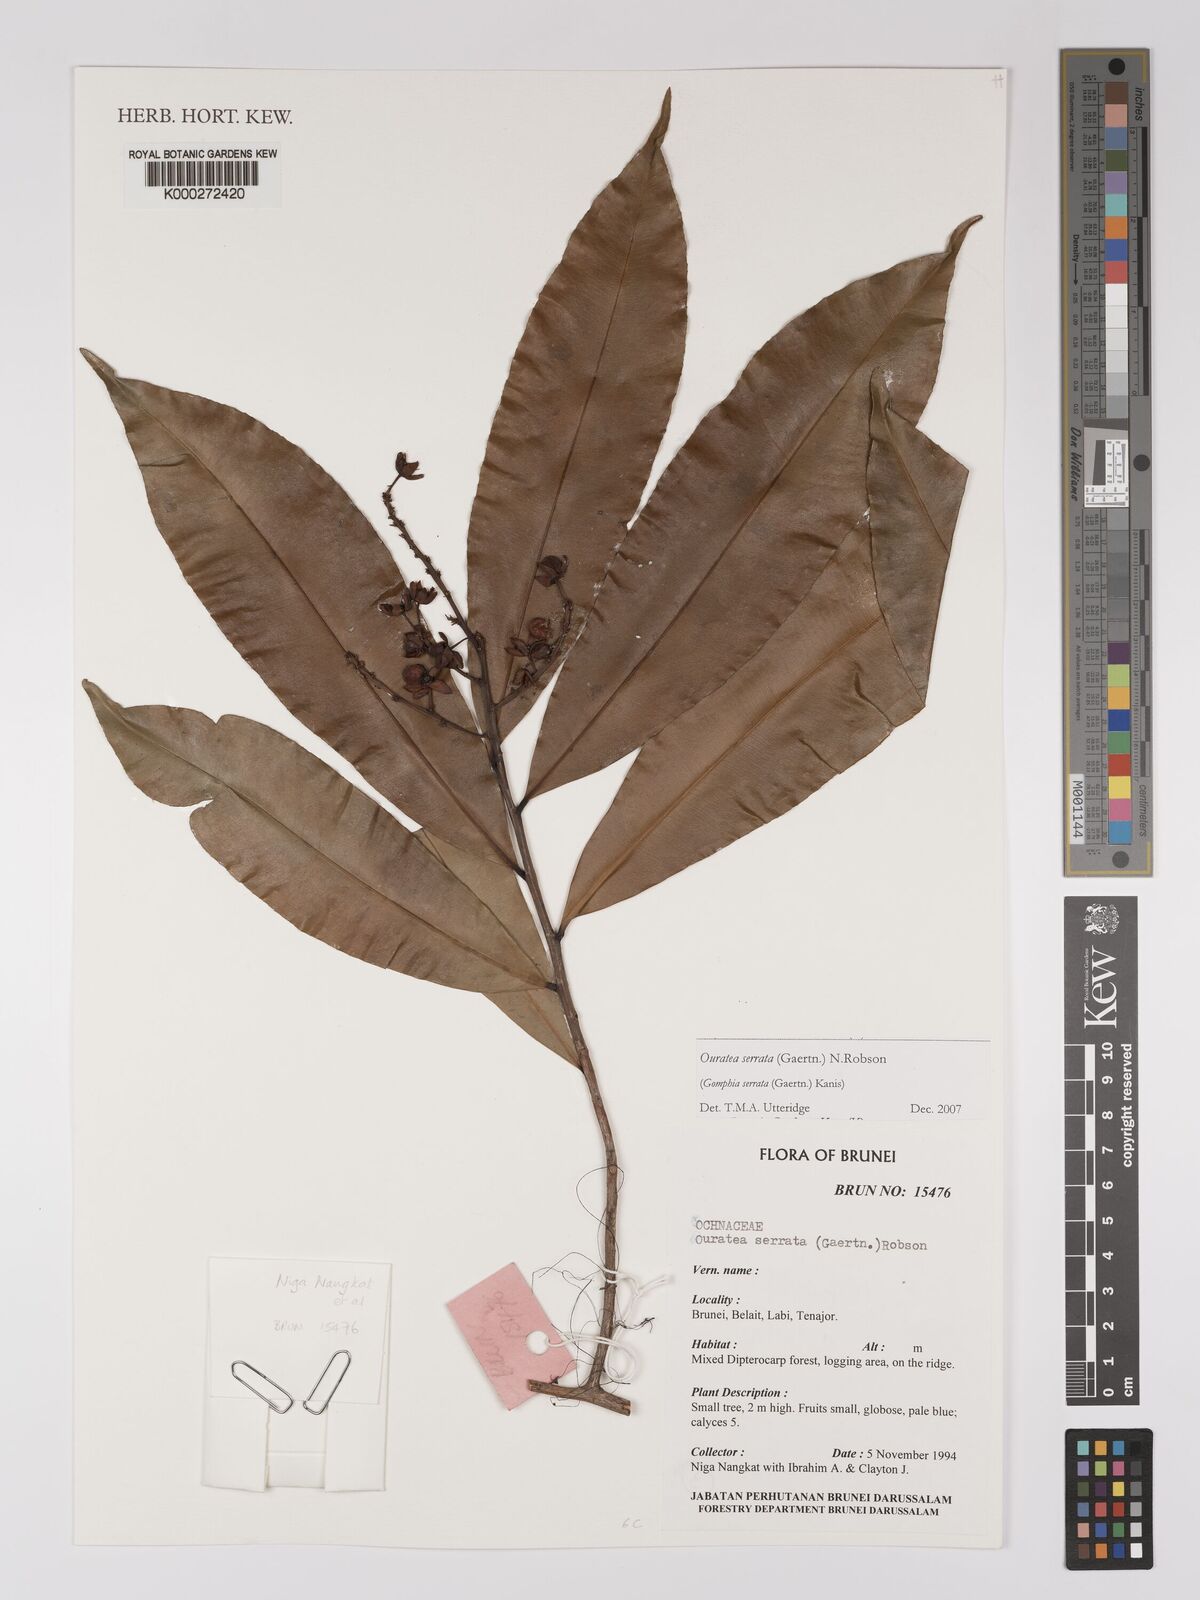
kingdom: Plantae
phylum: Tracheophyta
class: Magnoliopsida
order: Malpighiales
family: Ochnaceae
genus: Gomphia
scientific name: Gomphia serrata
